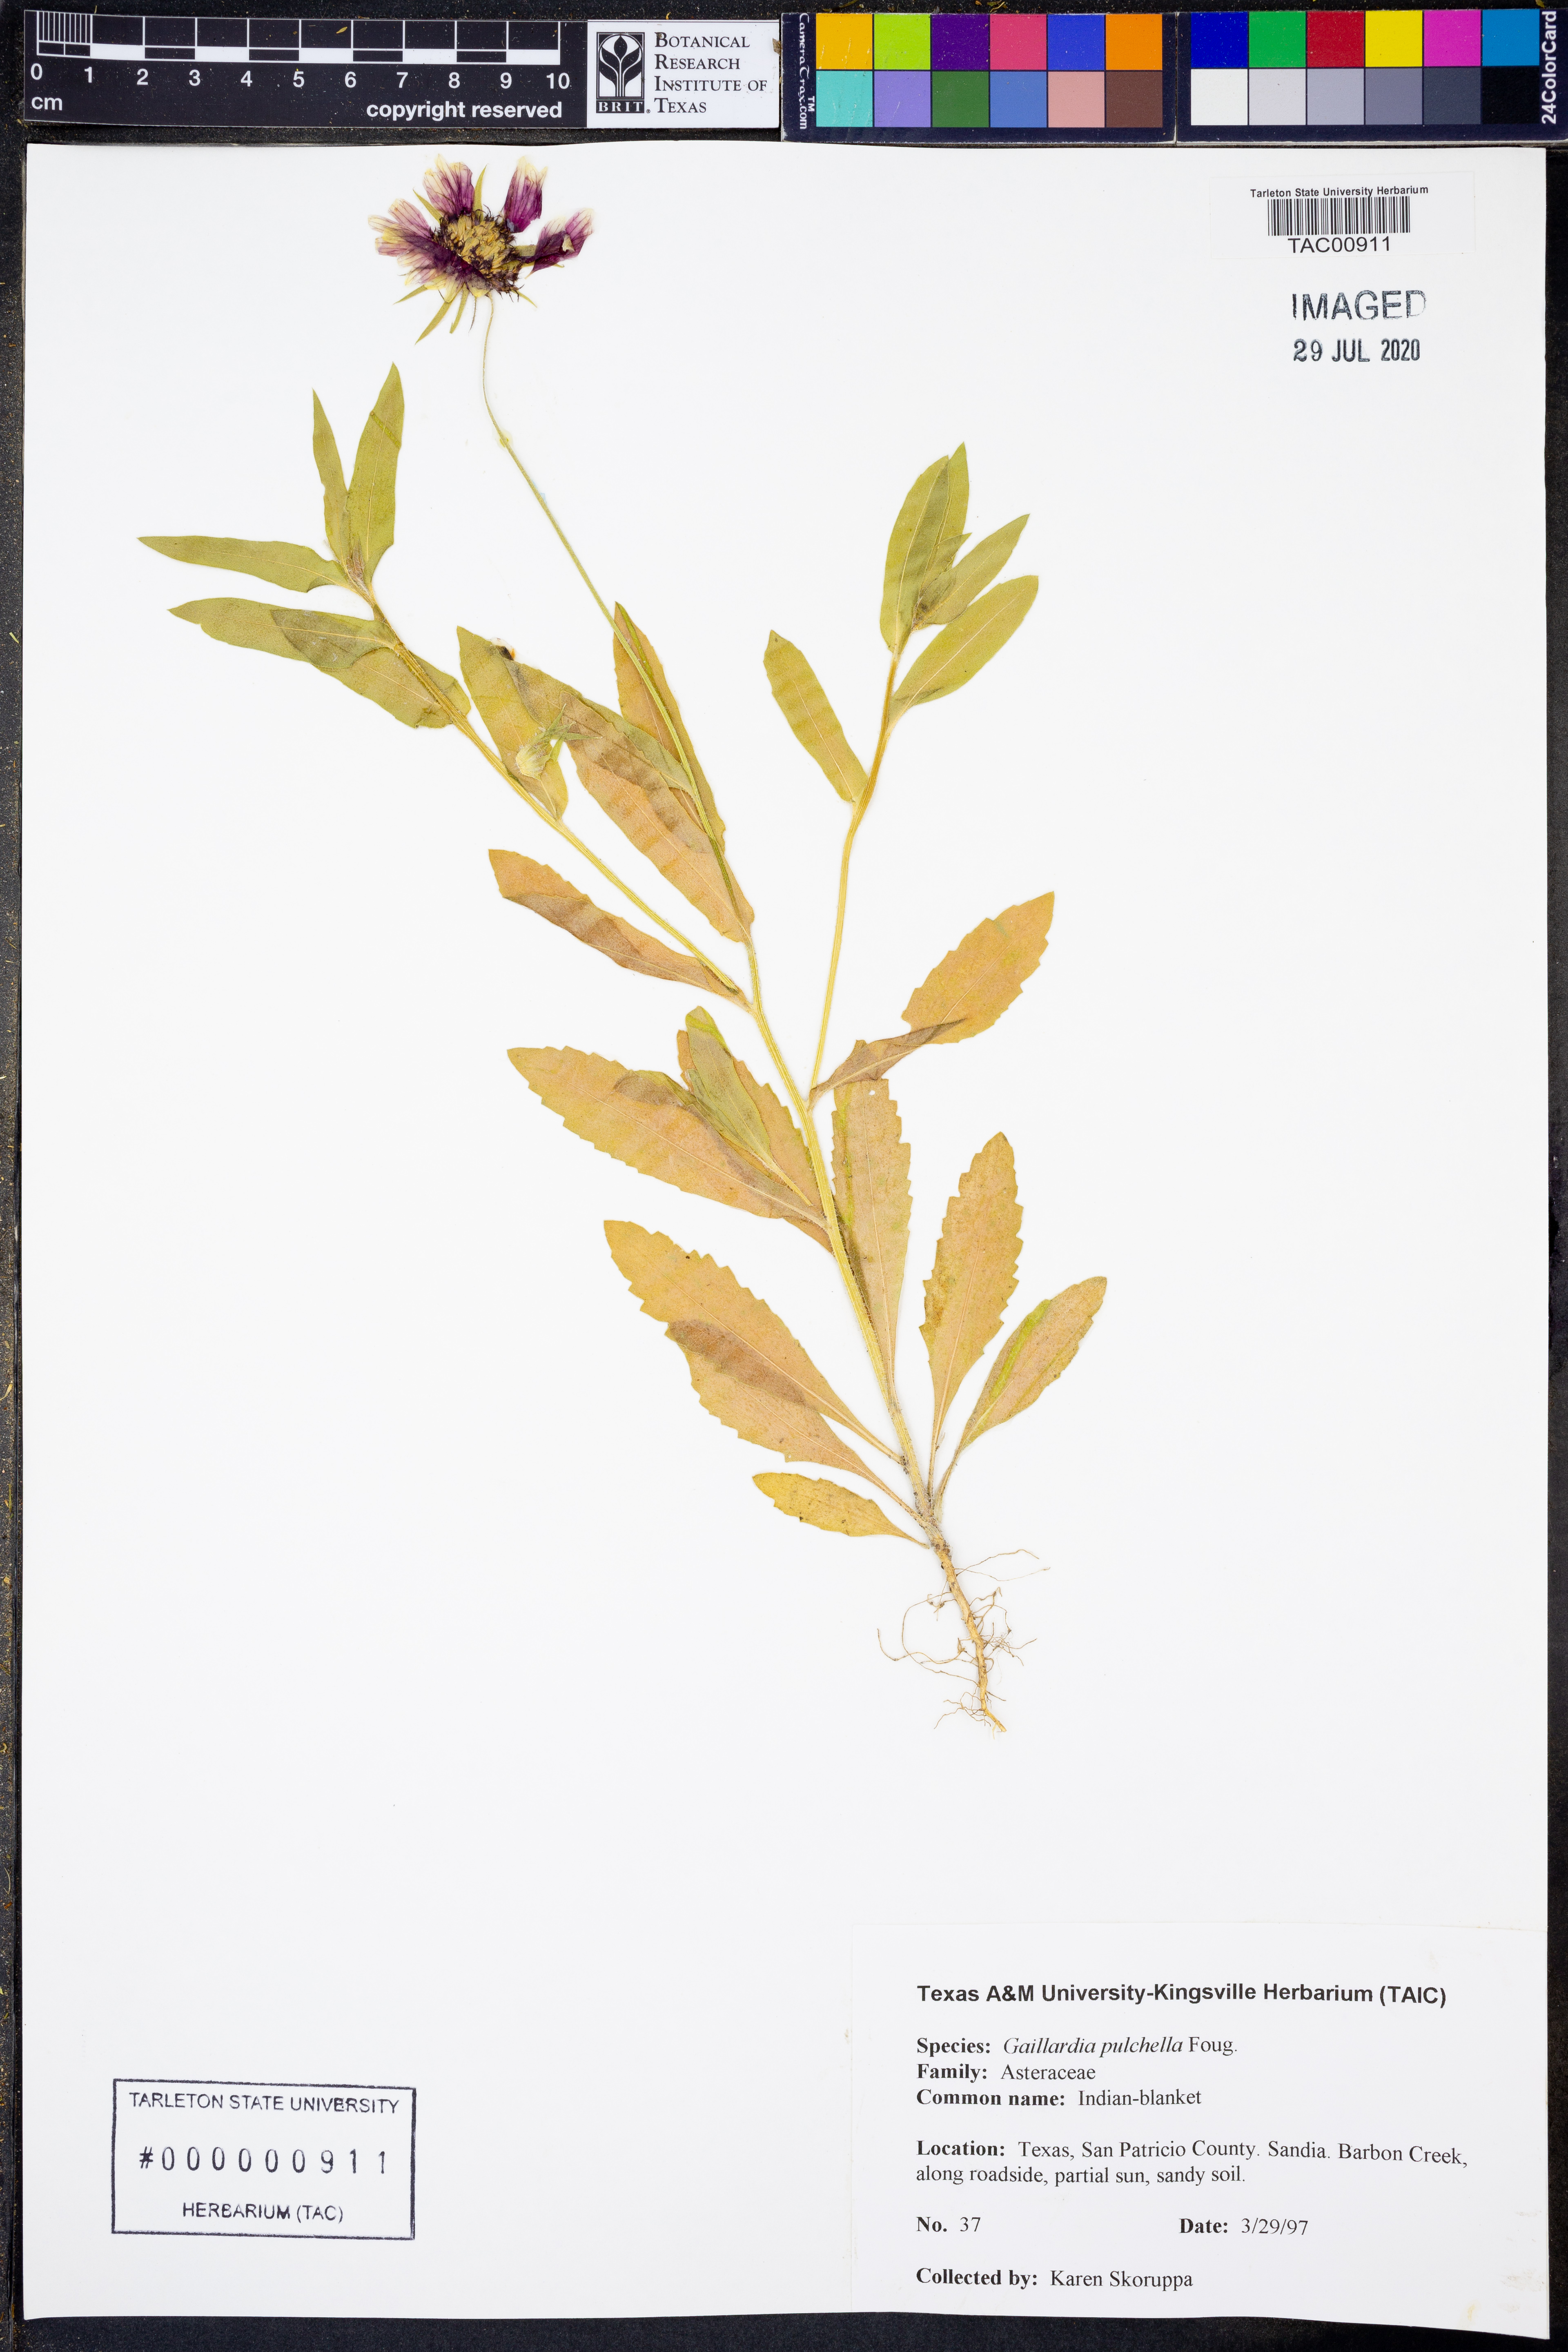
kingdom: Plantae
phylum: Tracheophyta
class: Magnoliopsida
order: Asterales
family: Asteraceae
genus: Gaillardia
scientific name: Gaillardia pulchella
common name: Firewheel
